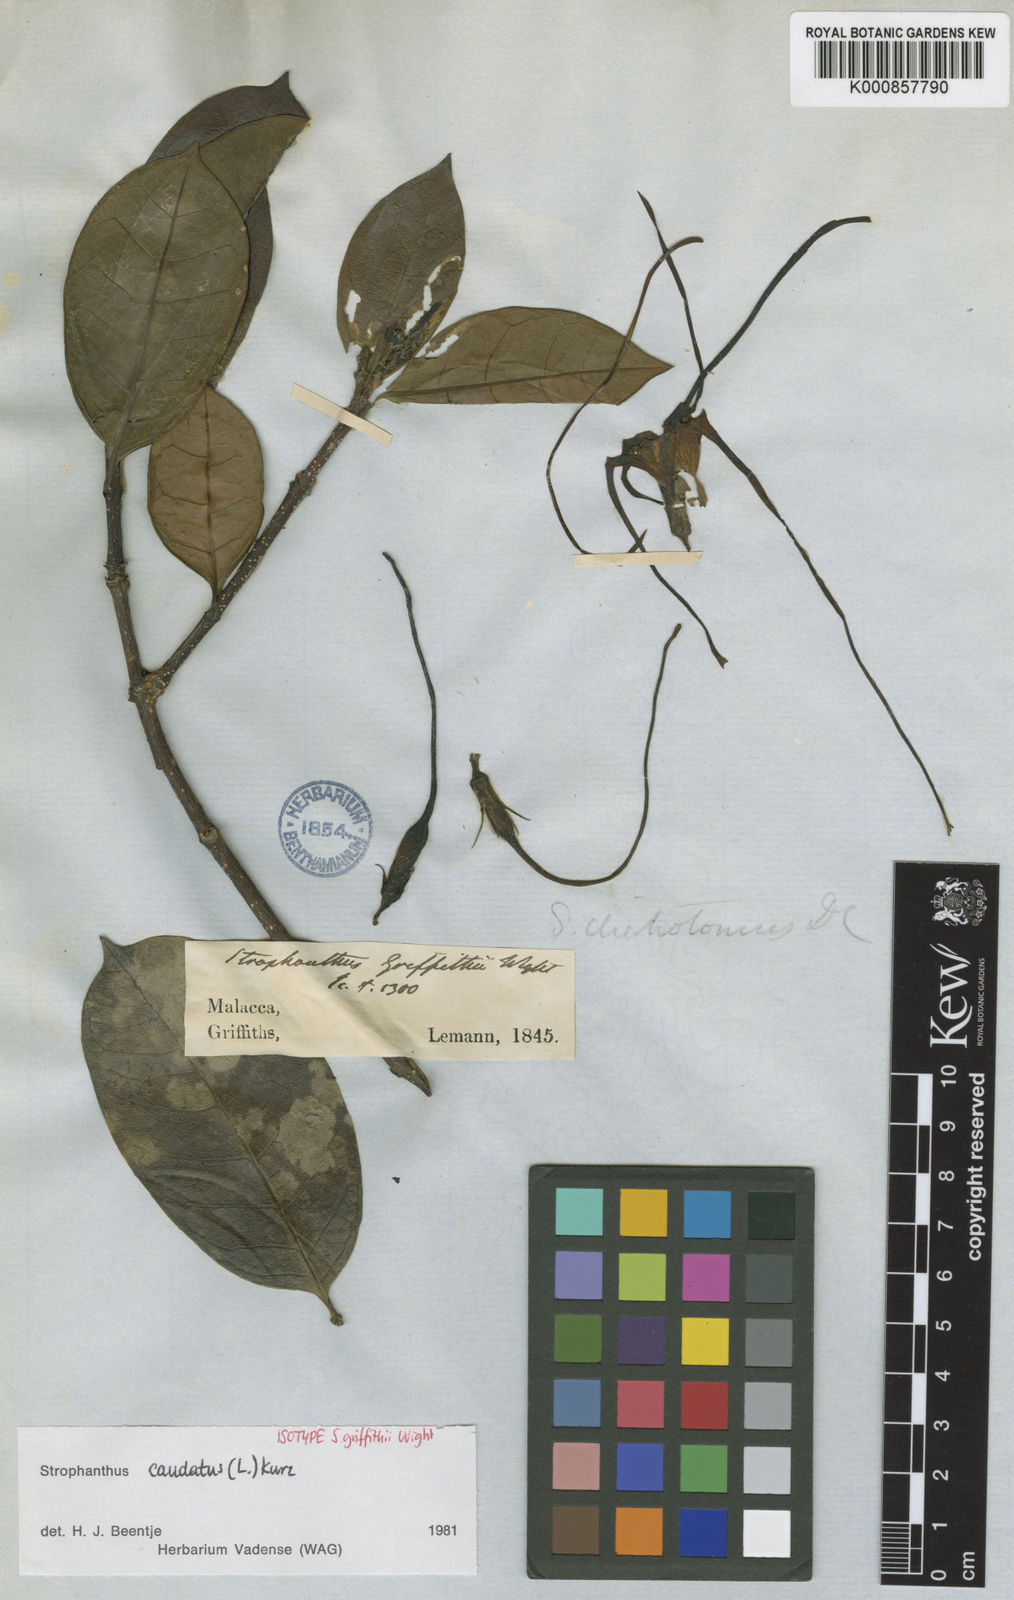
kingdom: Plantae
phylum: Tracheophyta
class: Magnoliopsida
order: Gentianales
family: Apocynaceae
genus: Strophanthus
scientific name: Strophanthus caudatus
